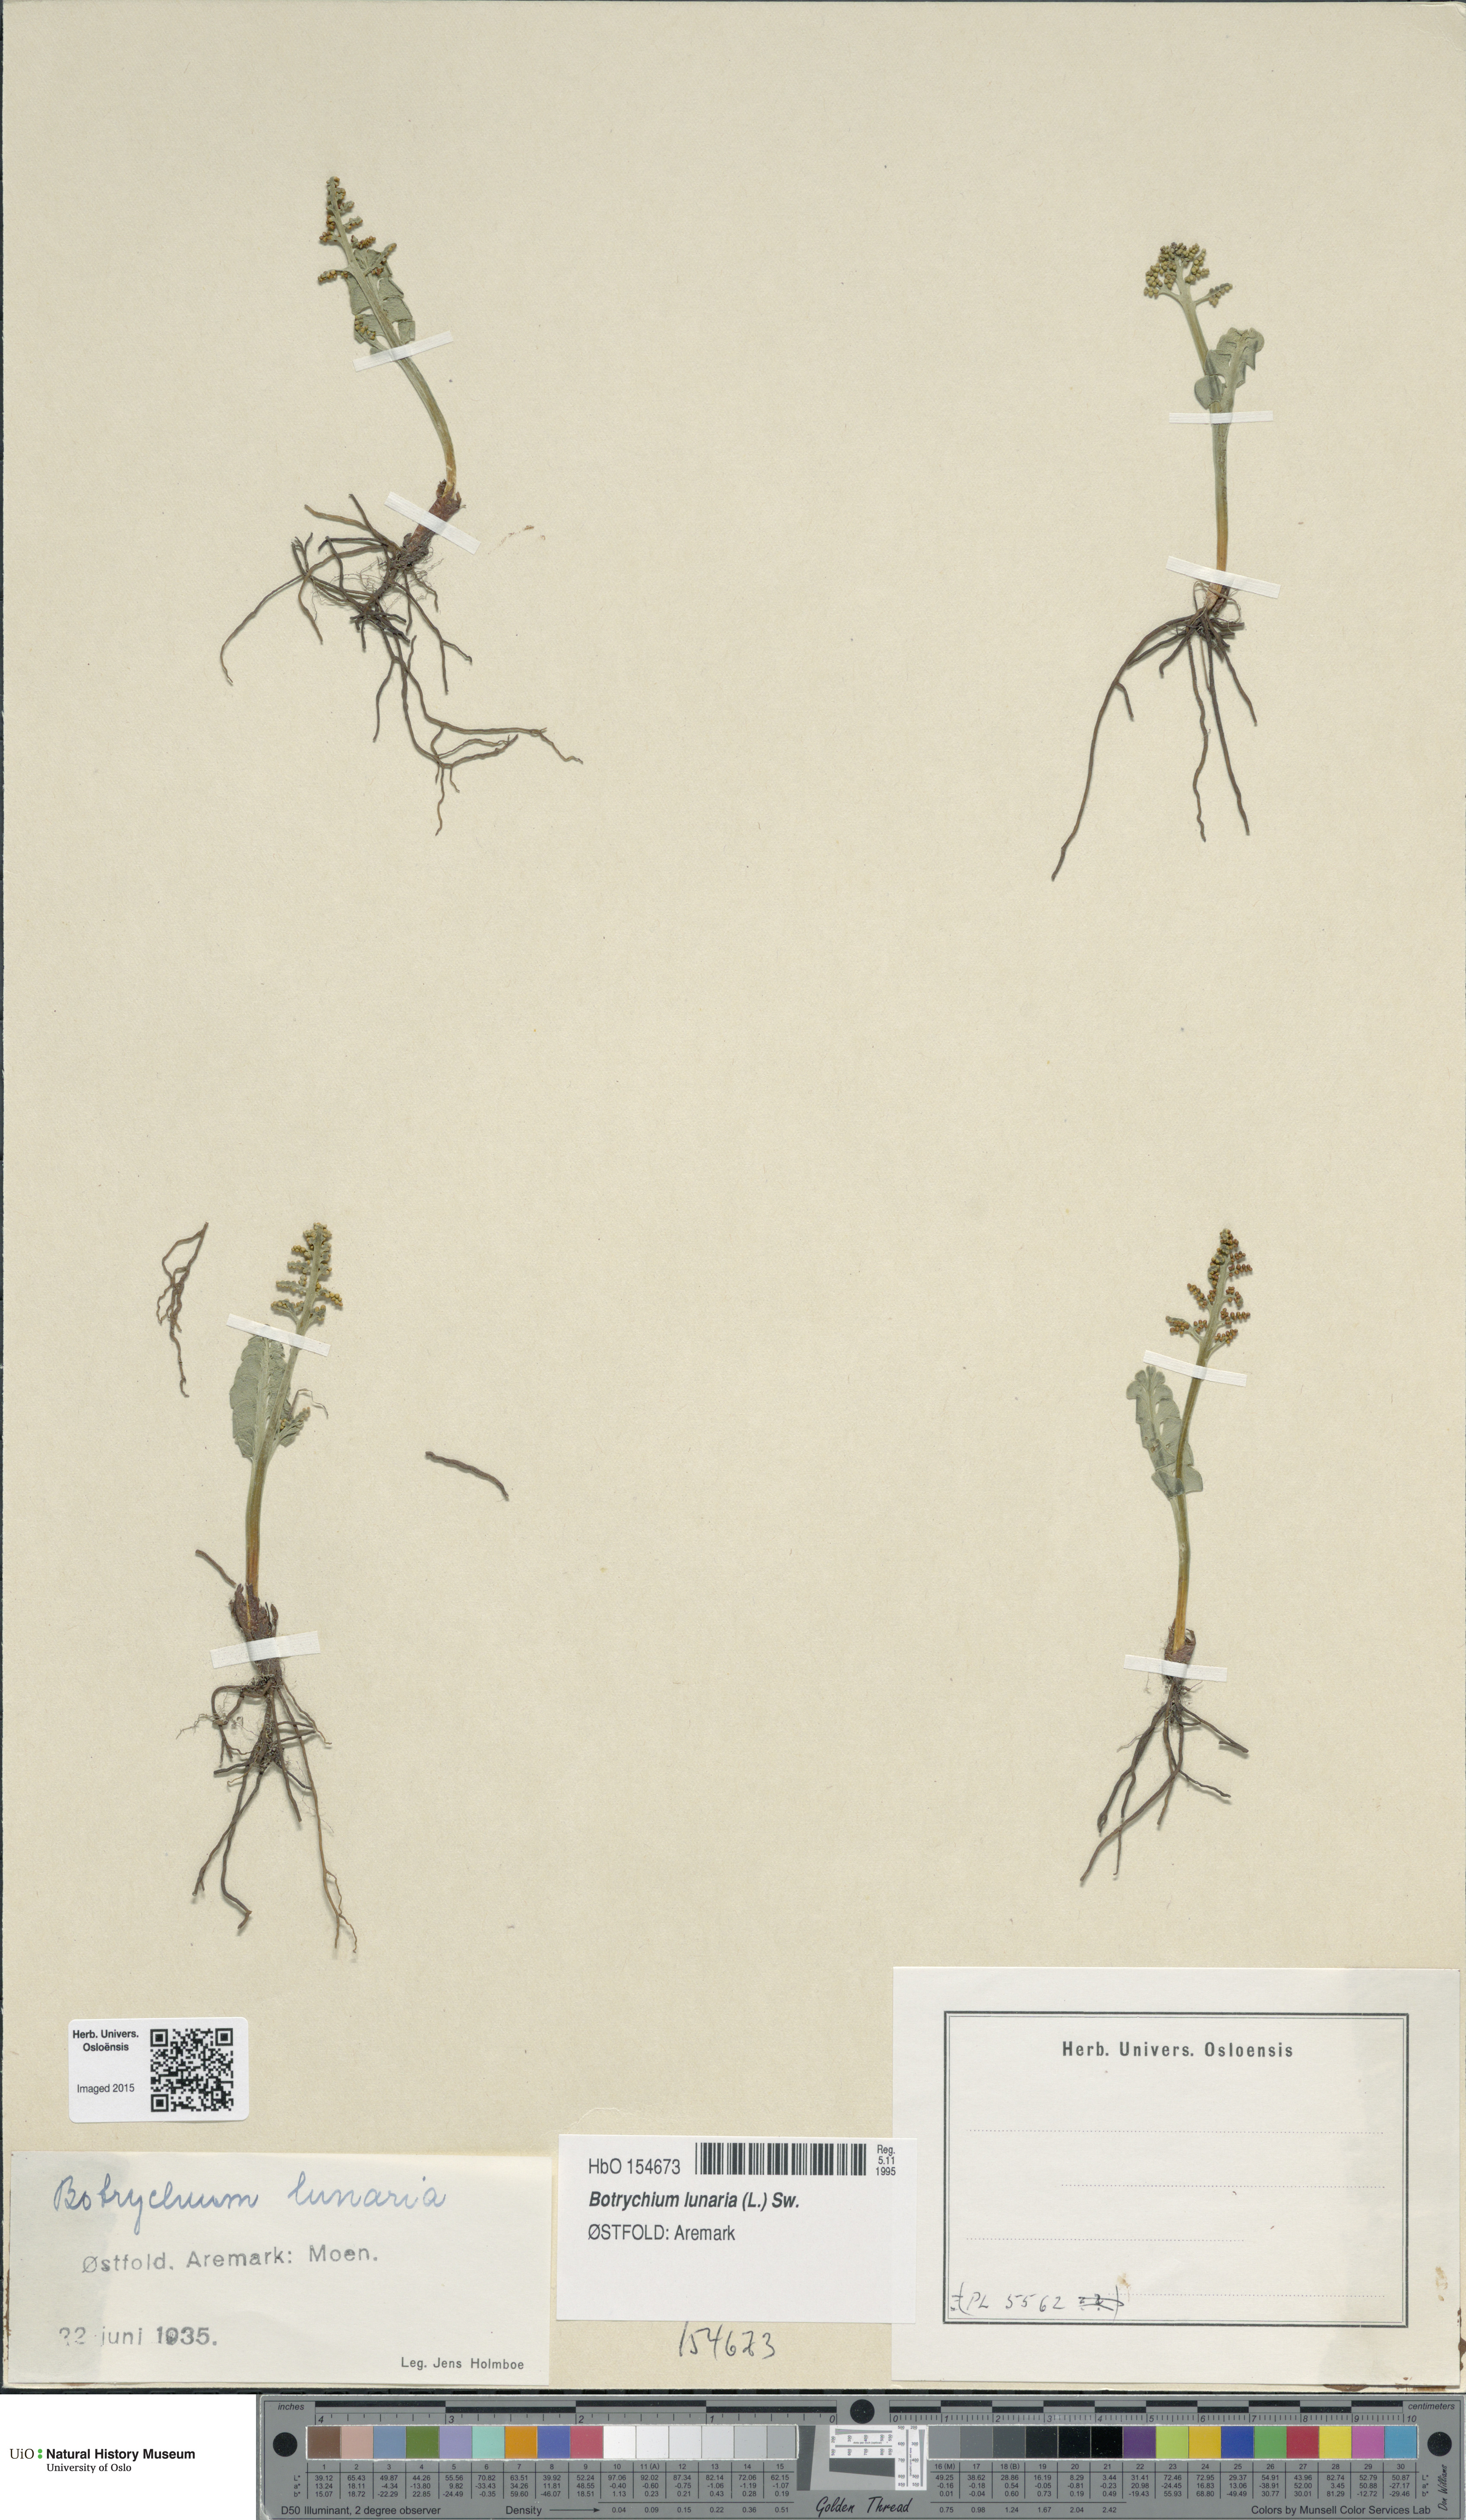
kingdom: Plantae
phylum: Tracheophyta
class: Polypodiopsida
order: Ophioglossales
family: Ophioglossaceae
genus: Botrychium
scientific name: Botrychium lunaria
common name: Moonwort
